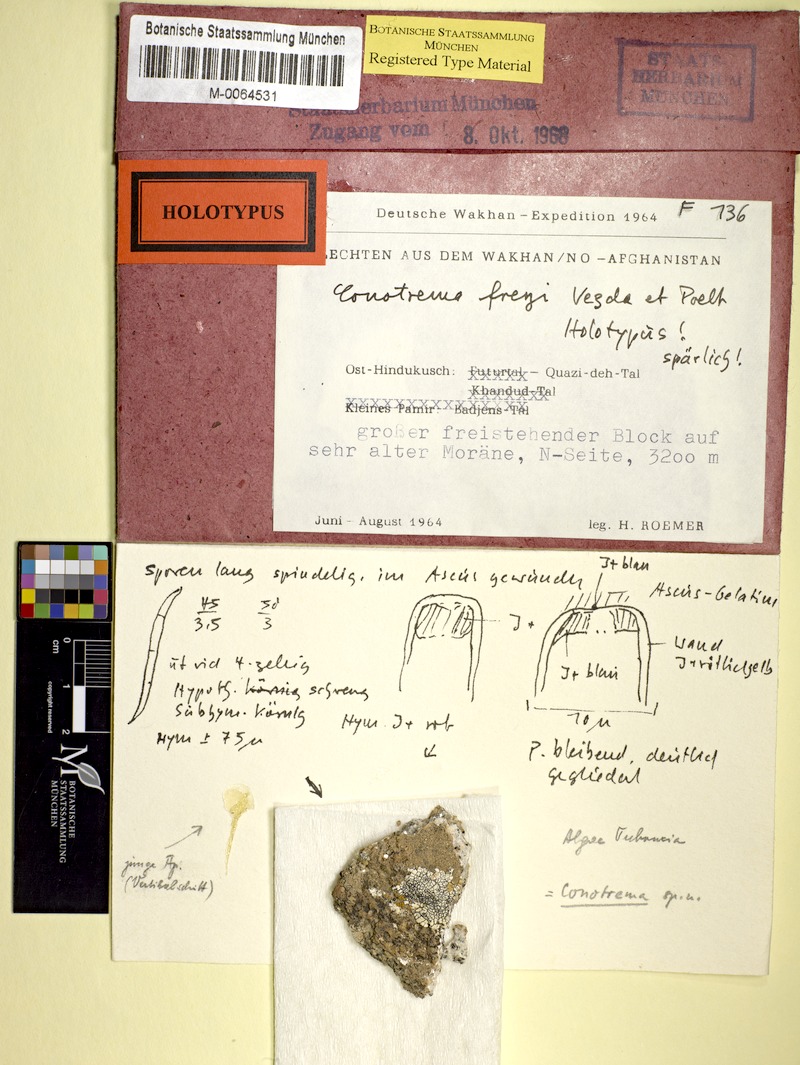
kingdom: Fungi
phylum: Ascomycota
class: Lecanoromycetes
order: Ostropales
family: Stictidaceae
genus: Stictis
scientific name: Stictis
